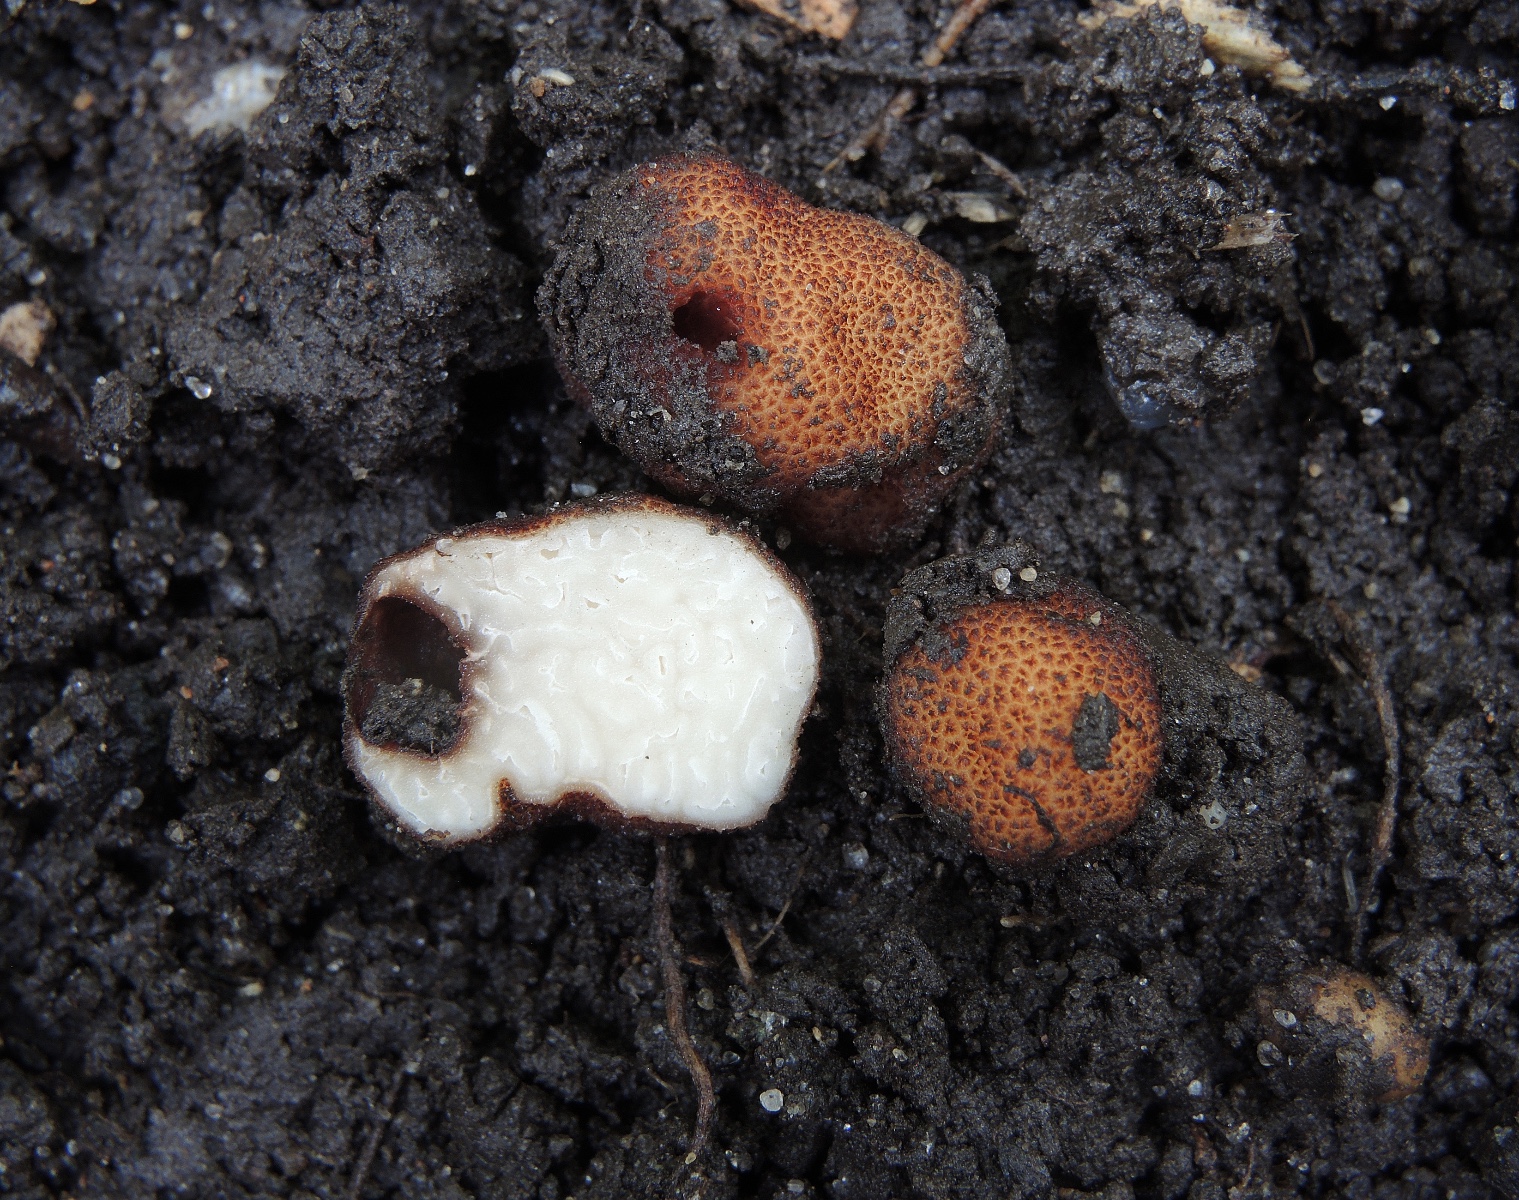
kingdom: Fungi
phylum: Ascomycota
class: Pezizomycetes
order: Pezizales
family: Helvellaceae
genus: Balsamia
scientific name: Balsamia polysperma
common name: bredsporet nøddetrøffel
